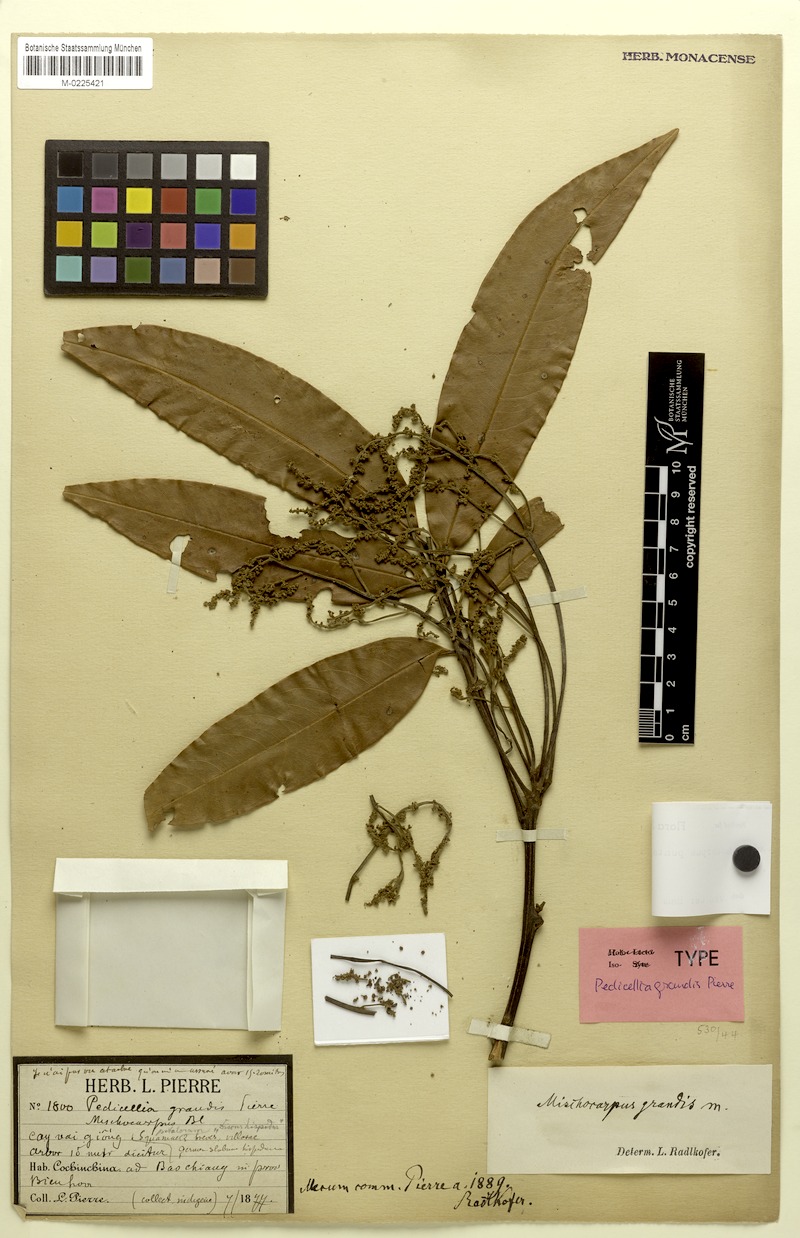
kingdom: Plantae
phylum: Tracheophyta
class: Magnoliopsida
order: Sapindales
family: Sapindaceae
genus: Mischocarpus
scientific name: Mischocarpus pentapetalus
